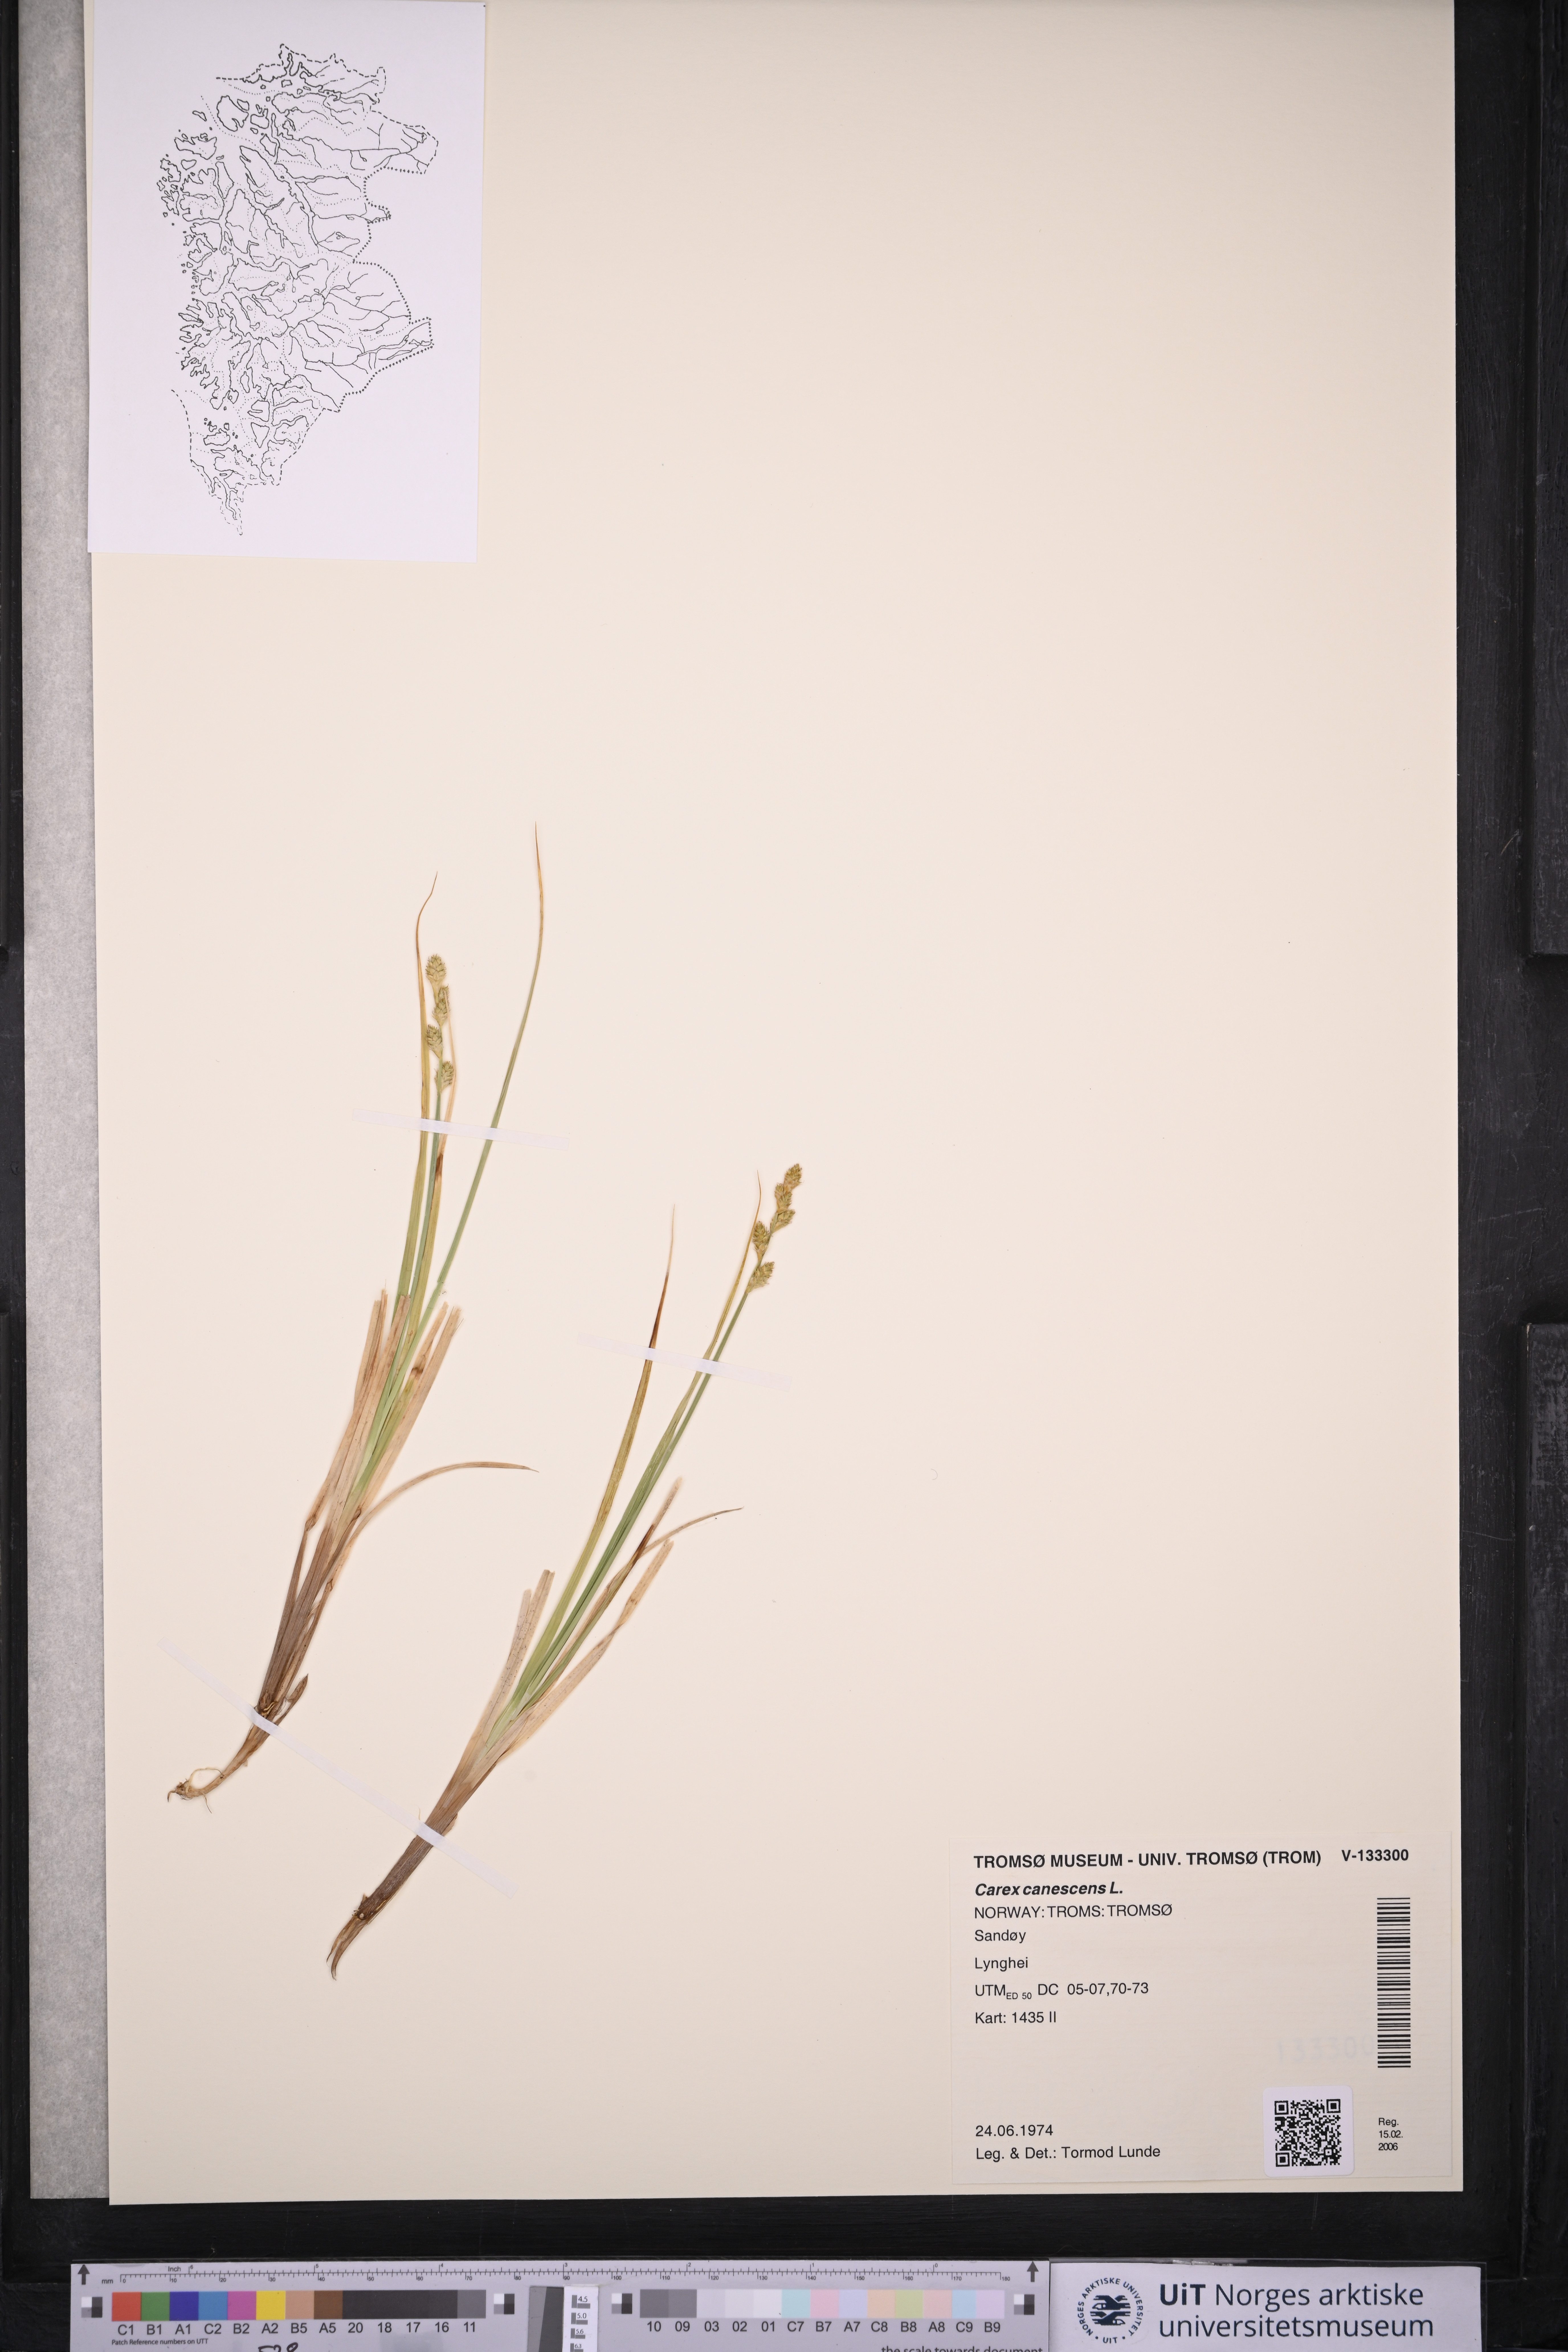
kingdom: Plantae
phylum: Tracheophyta
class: Liliopsida
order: Poales
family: Cyperaceae
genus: Carex
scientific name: Carex canescens
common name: White sedge
